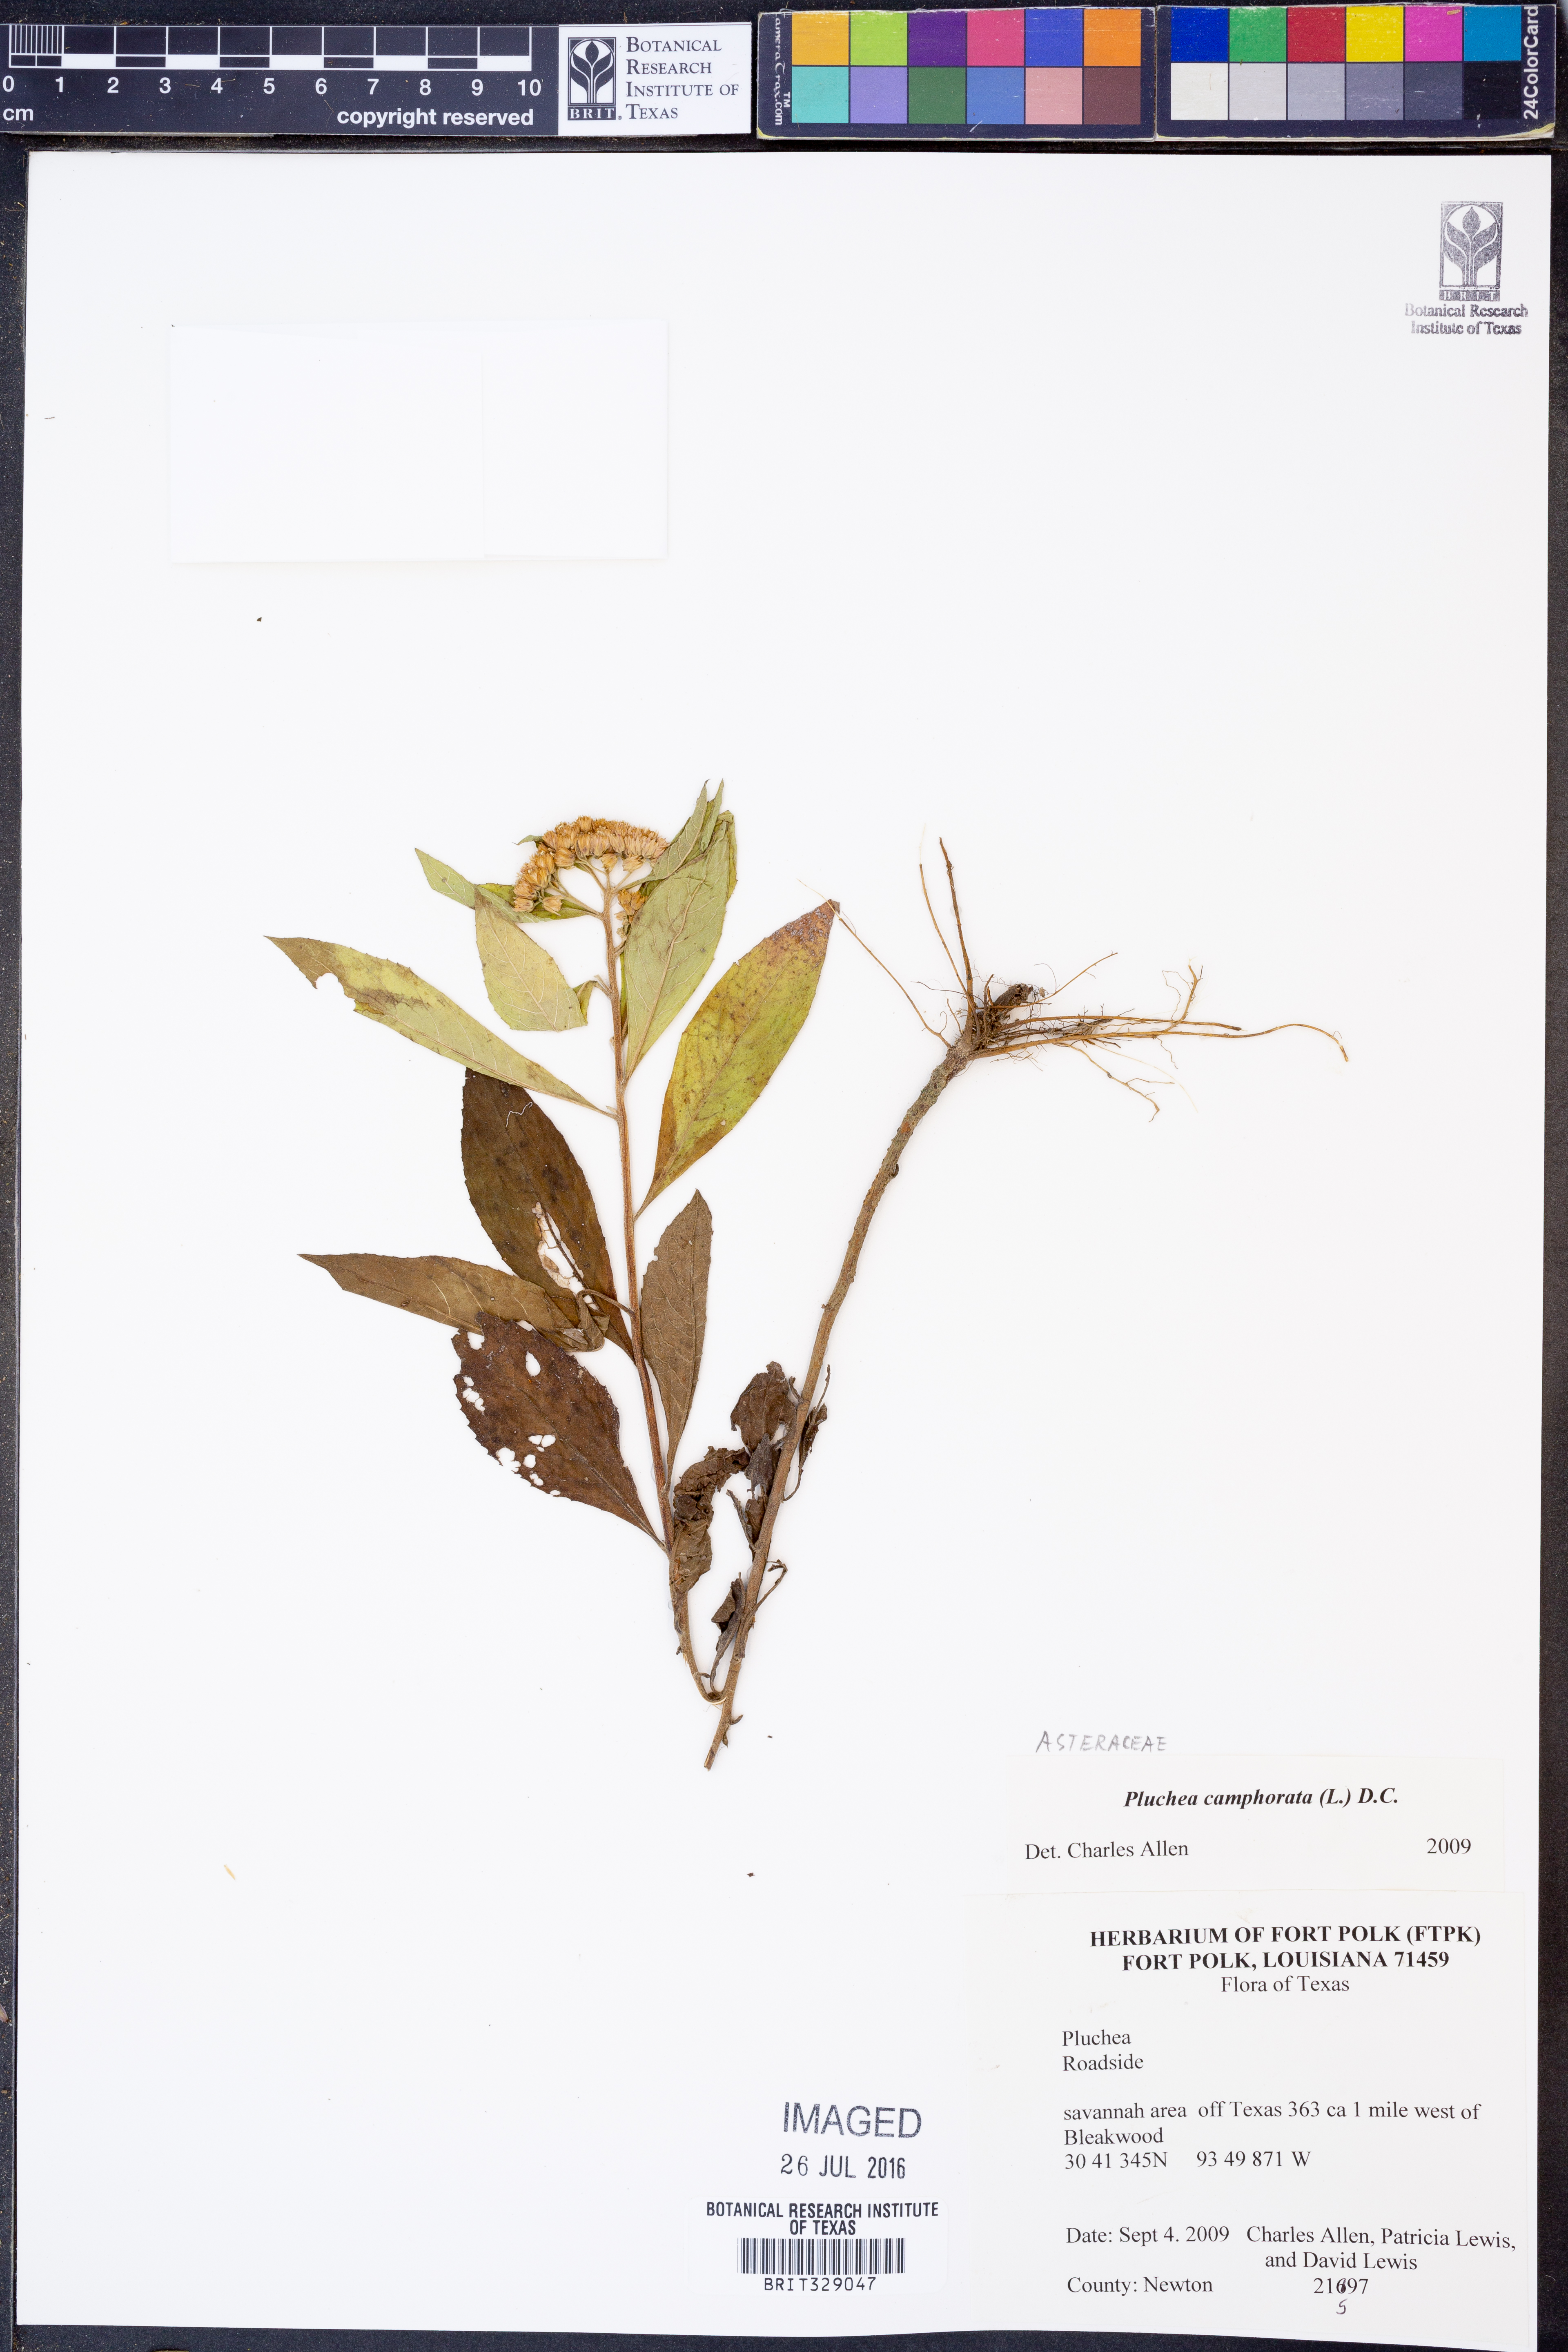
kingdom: Plantae
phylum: Tracheophyta
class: Magnoliopsida
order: Asterales
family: Asteraceae
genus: Pluchea
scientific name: Pluchea camphorata
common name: Camphor pluchea
